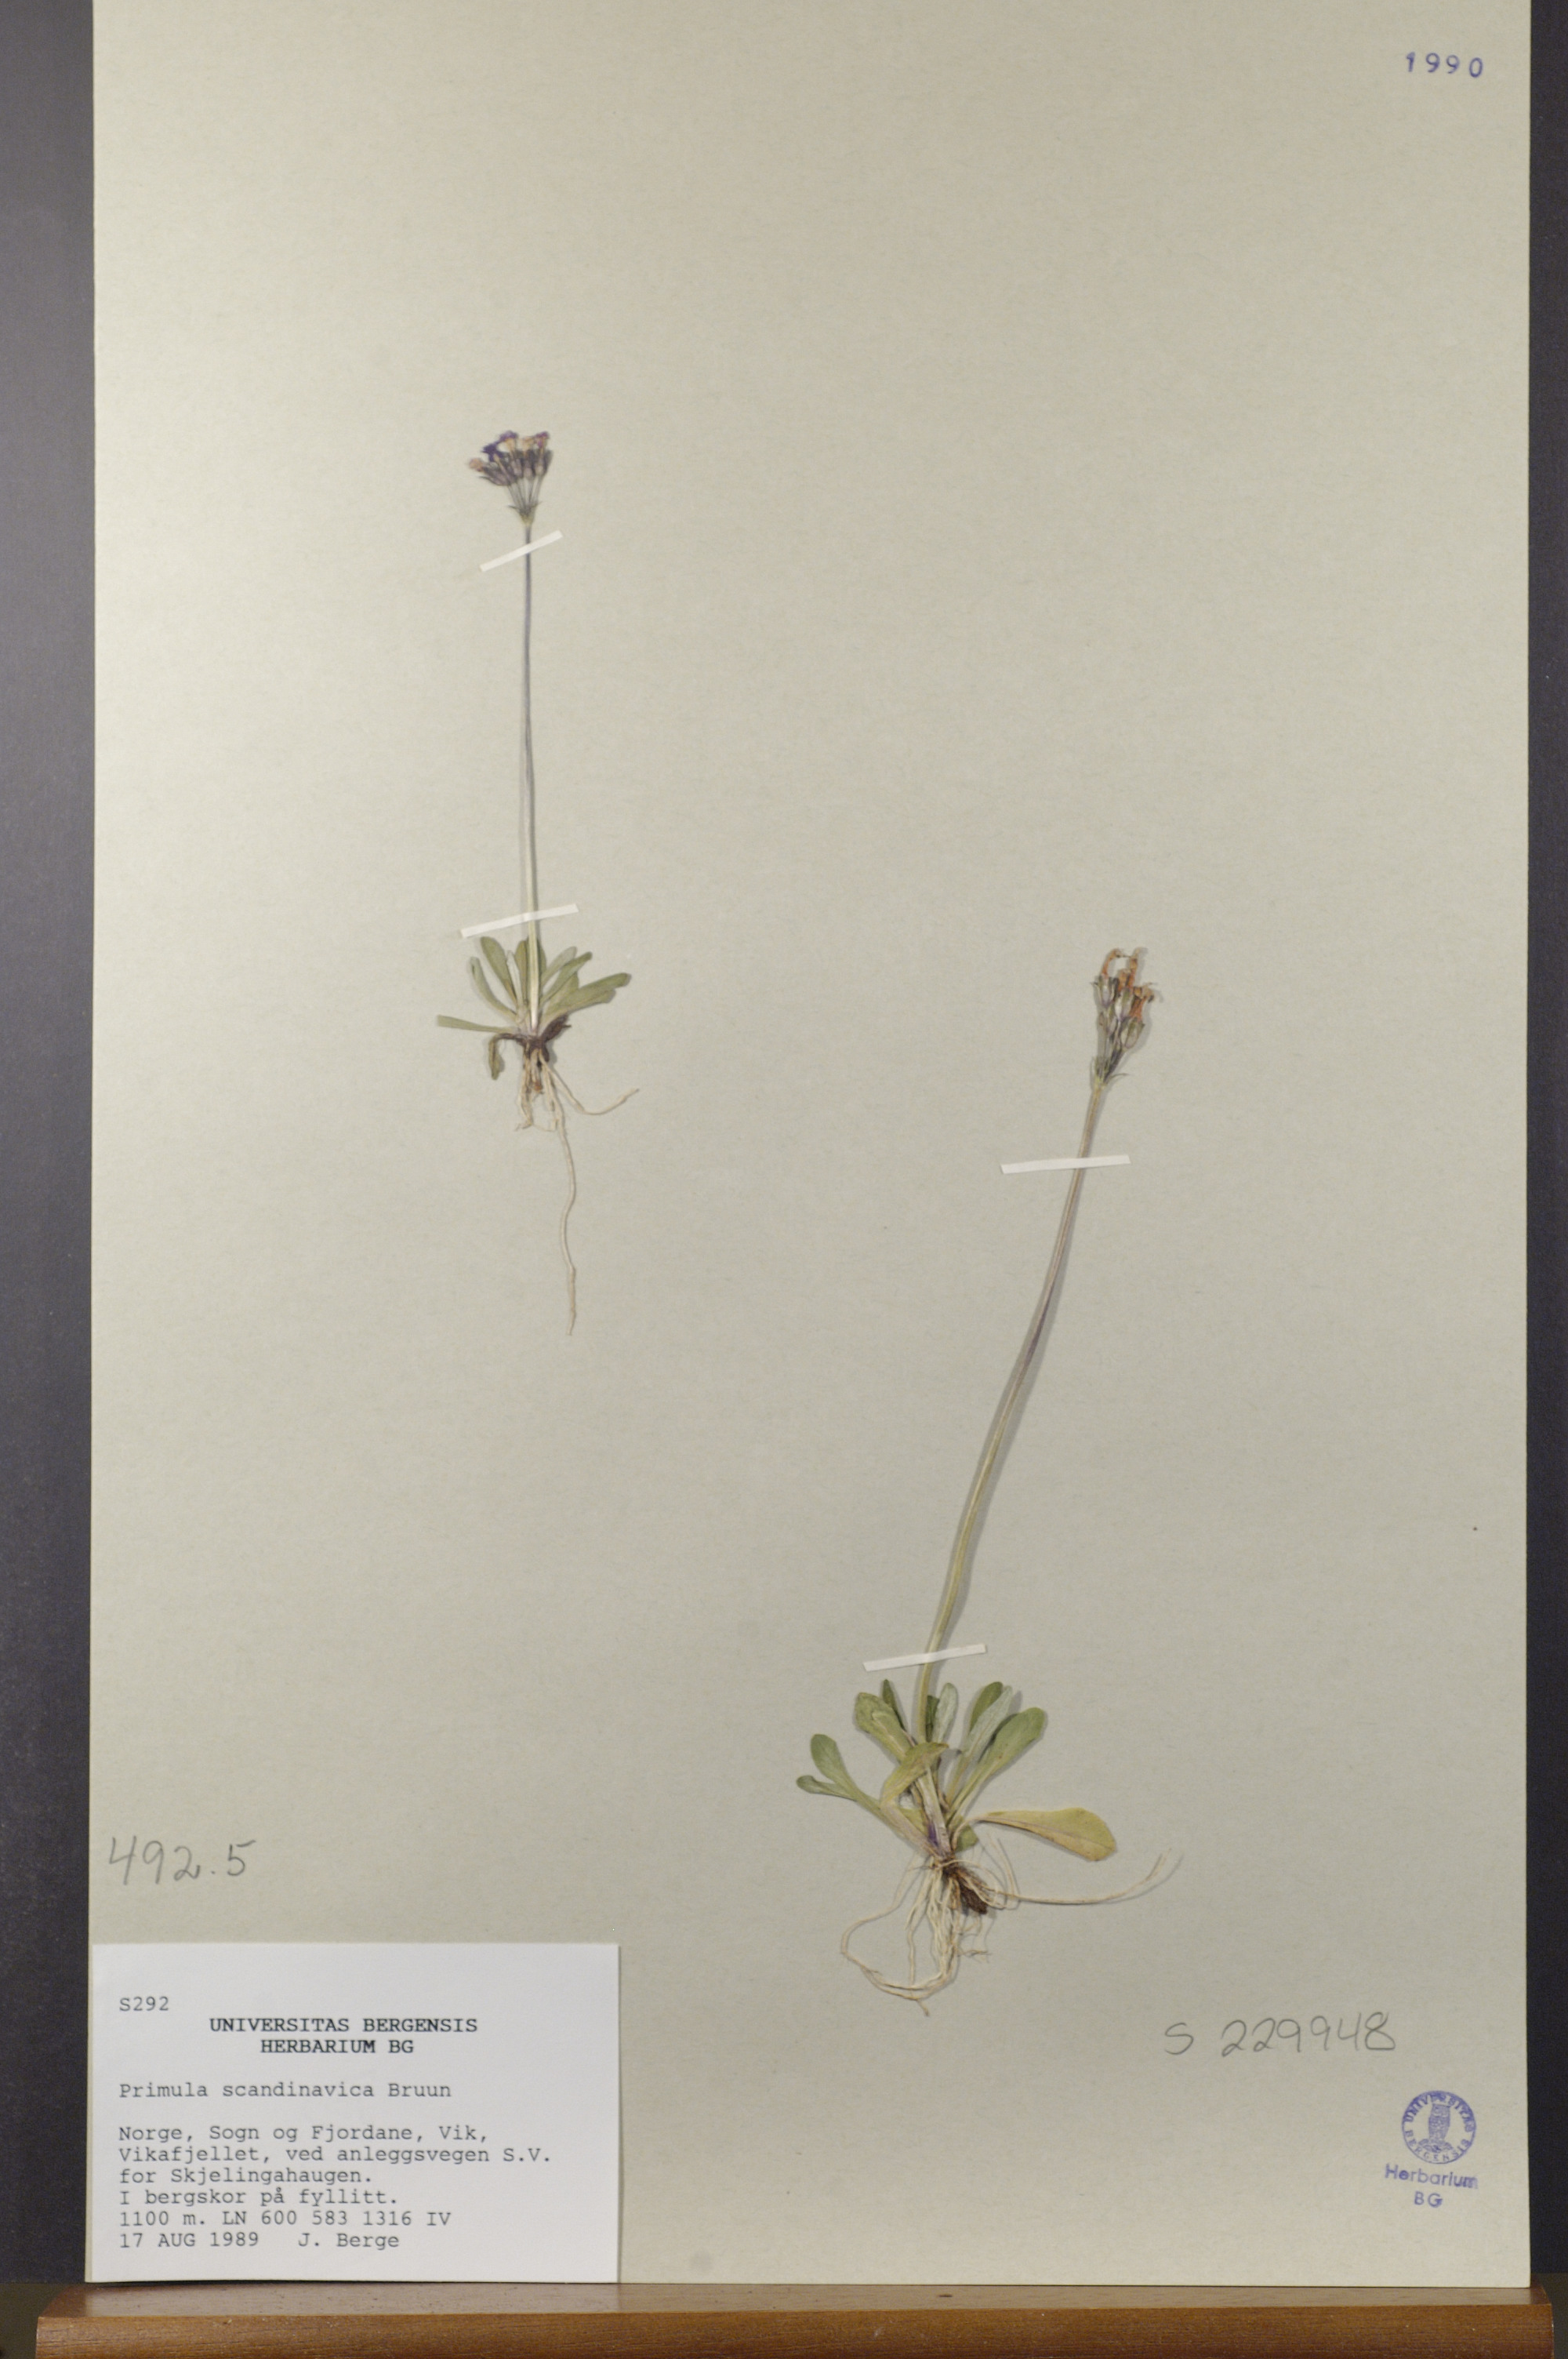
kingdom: Plantae
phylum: Tracheophyta
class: Magnoliopsida
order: Ericales
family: Primulaceae
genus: Primula
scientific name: Primula scandinavica
